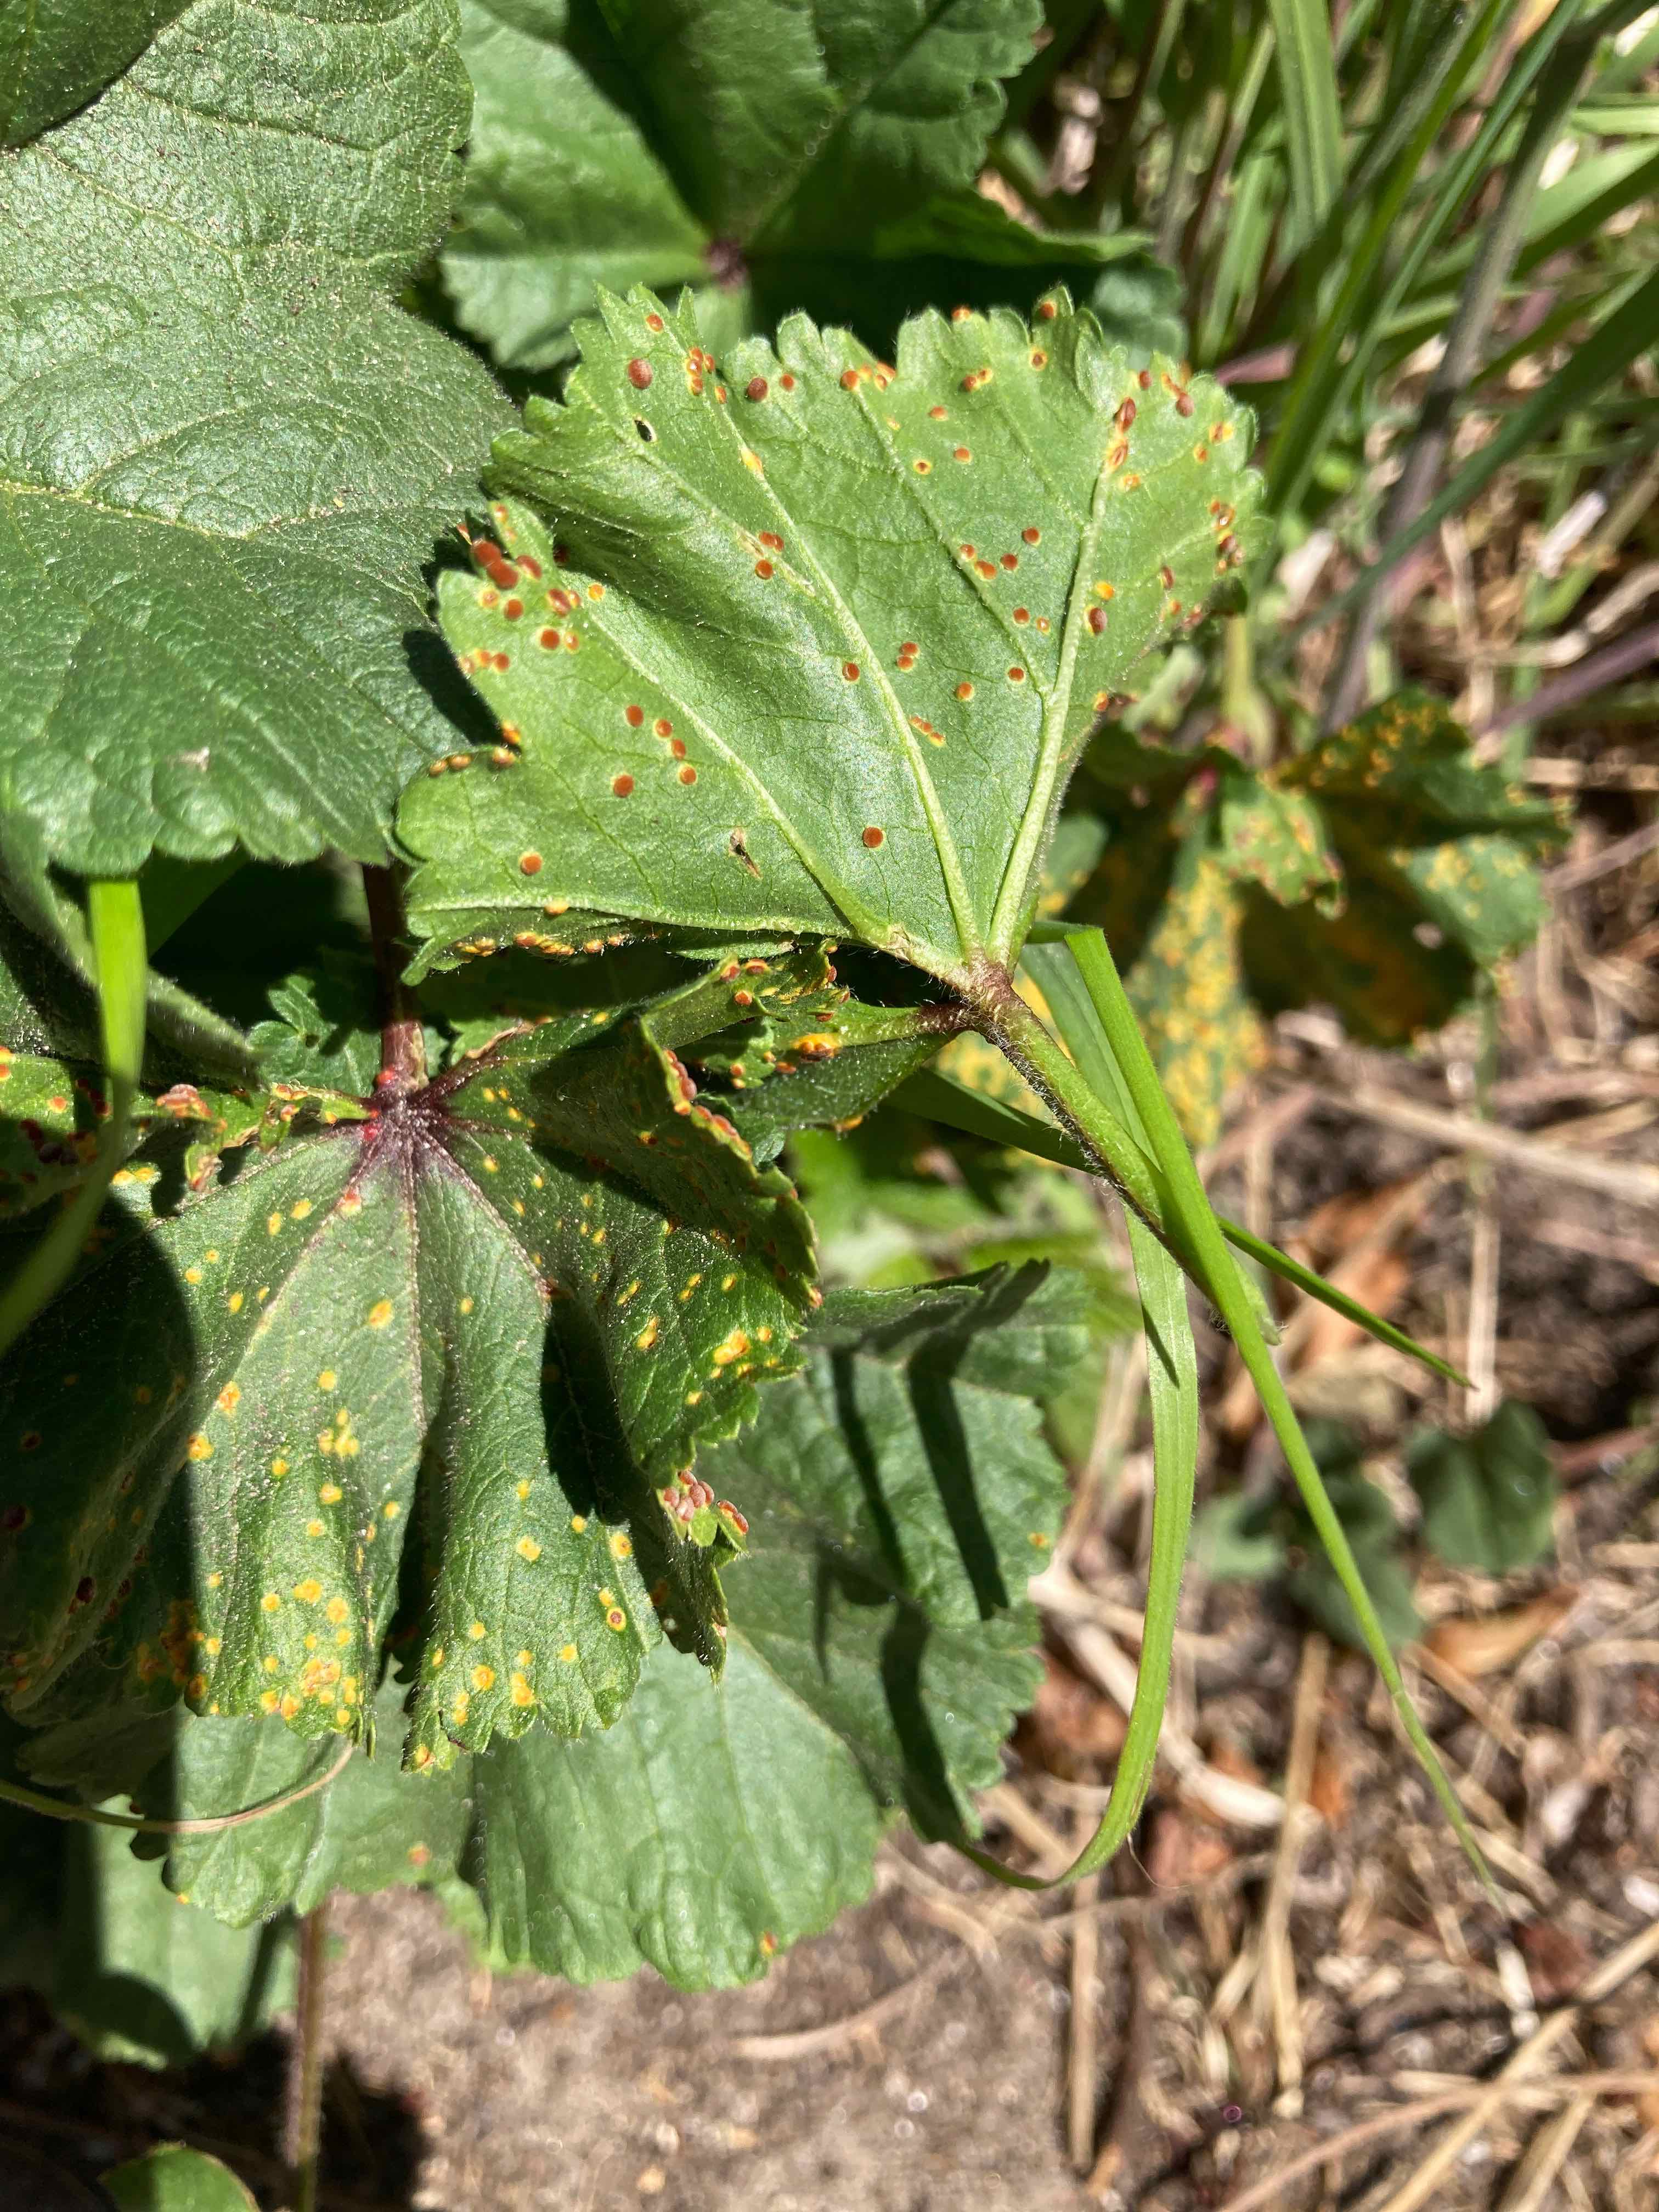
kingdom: Fungi
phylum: Basidiomycota
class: Pucciniomycetes
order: Pucciniales
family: Pucciniaceae
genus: Puccinia
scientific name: Puccinia malvacearum
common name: stokrose-tvecellerust
